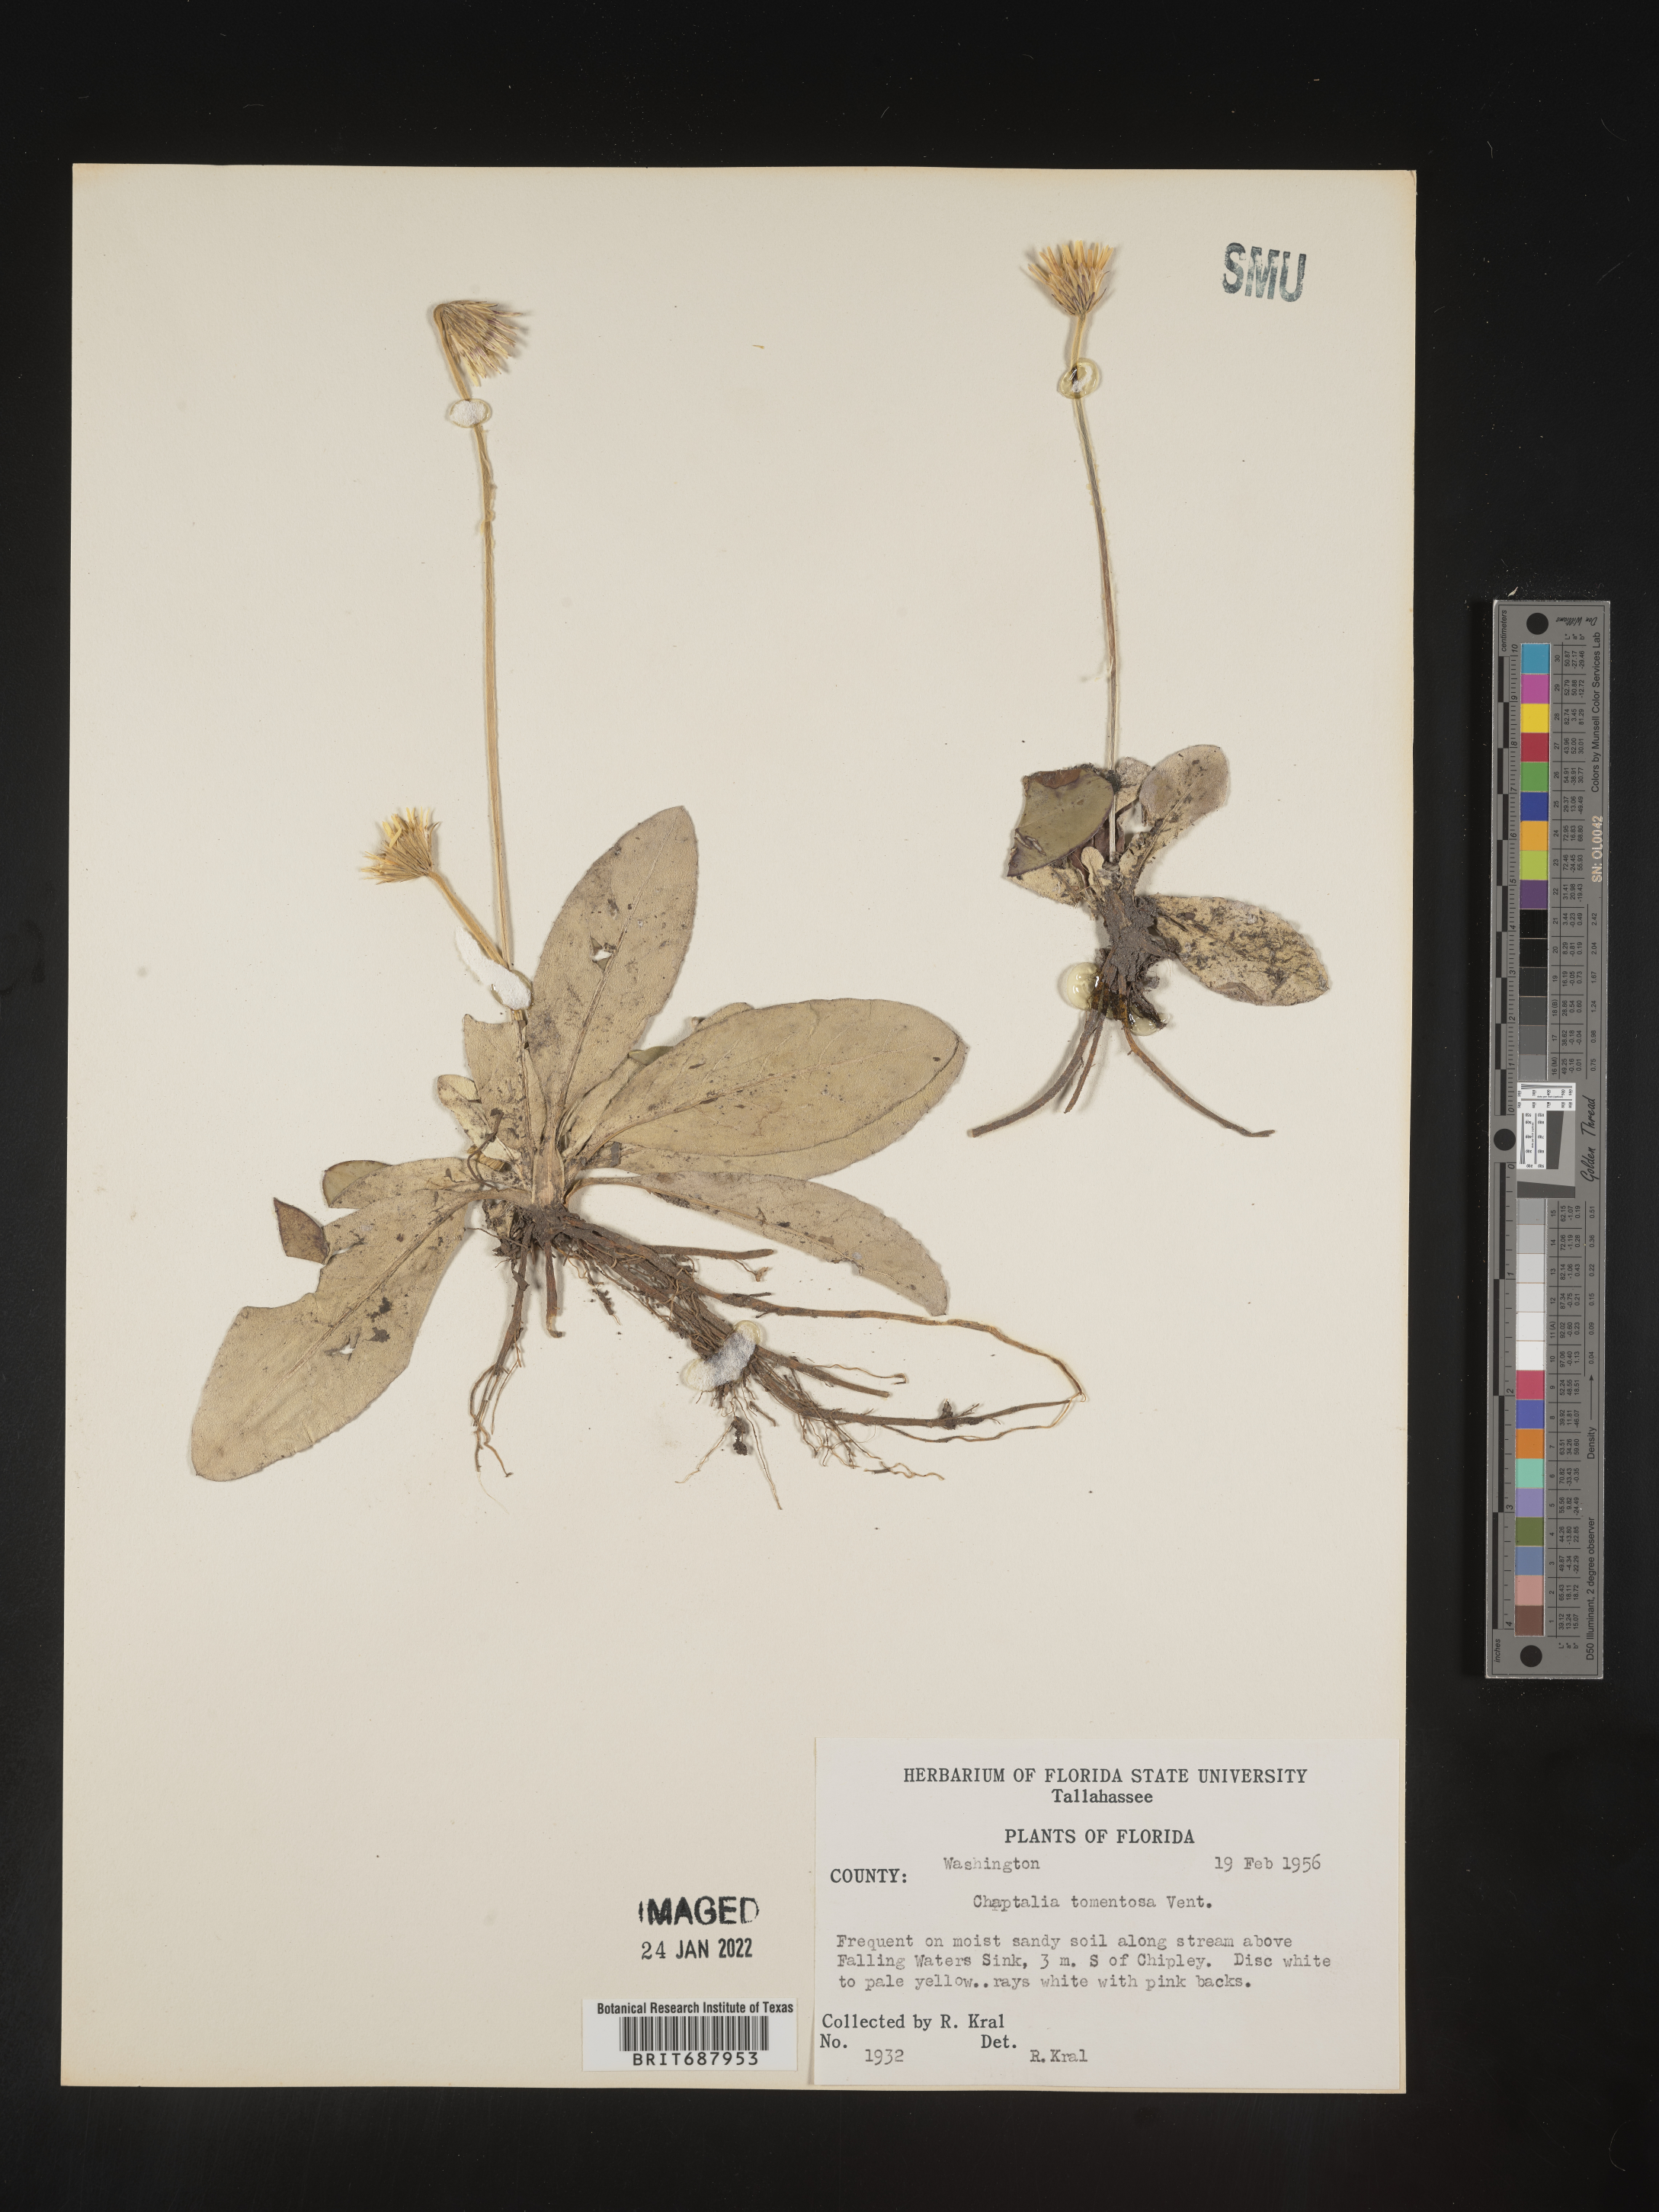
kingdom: Plantae
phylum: Tracheophyta
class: Magnoliopsida
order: Asterales
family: Asteraceae
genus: Chaptalia
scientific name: Chaptalia tomentosa
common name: Woolly sunbonnet
